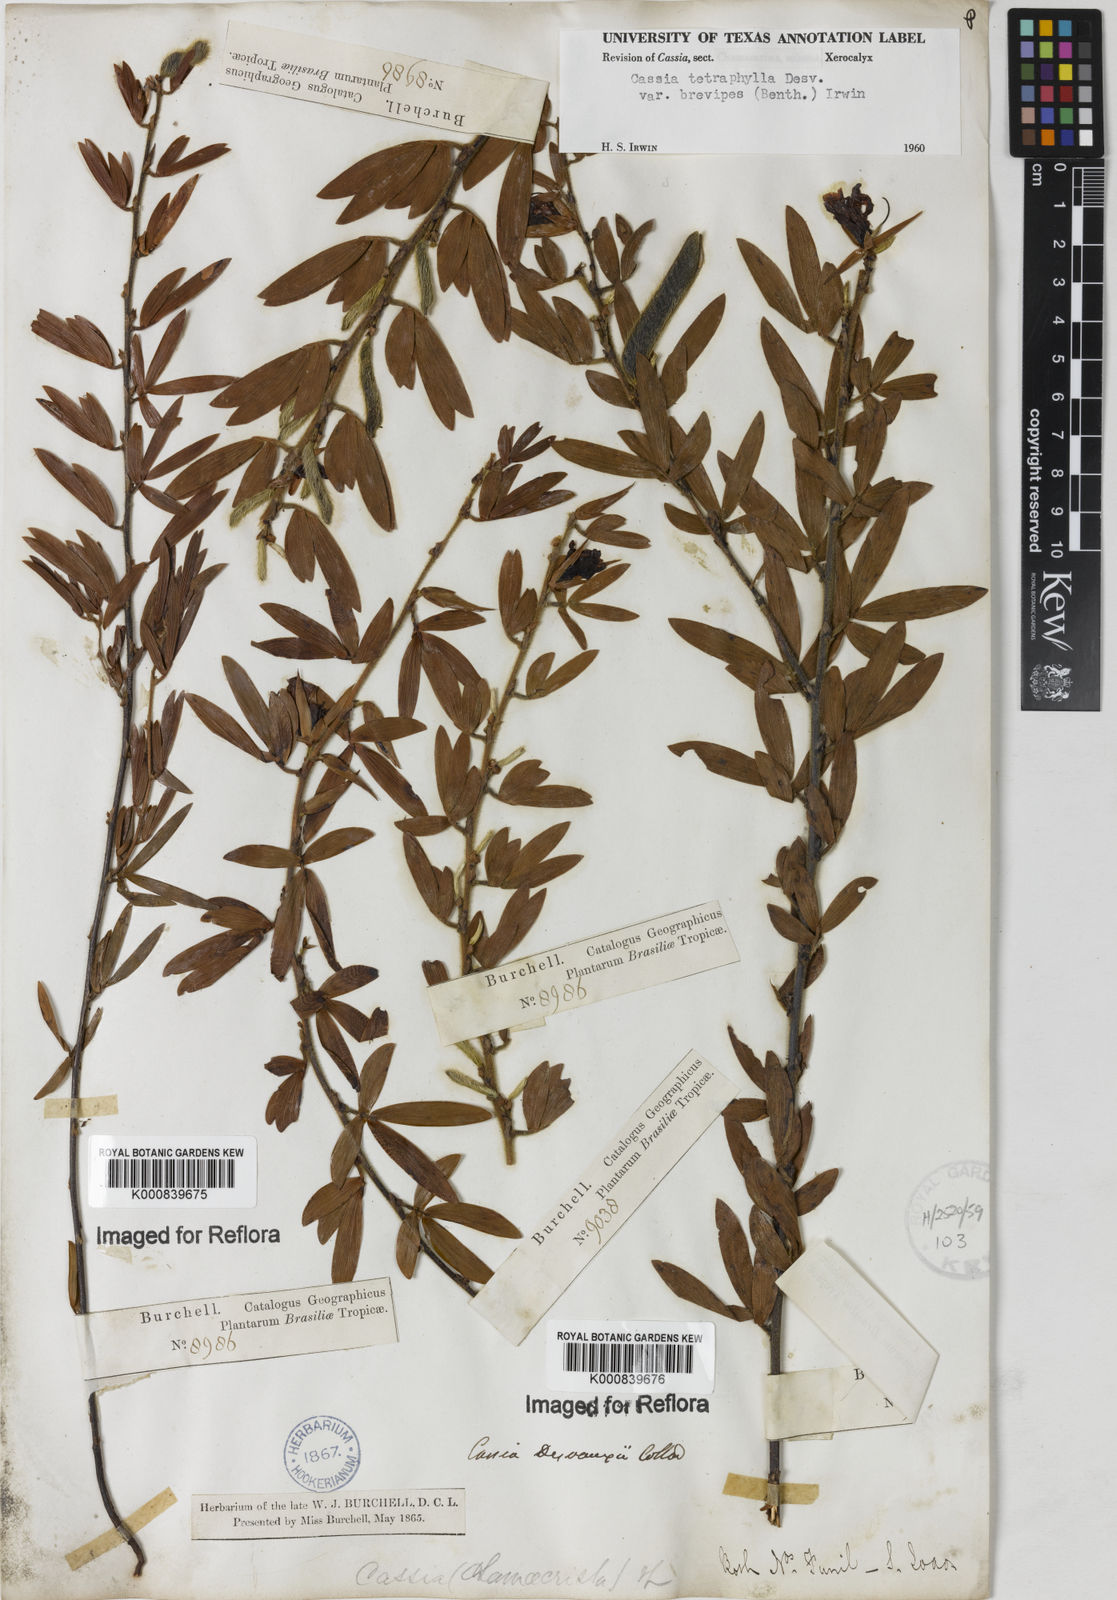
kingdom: Plantae
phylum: Tracheophyta
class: Magnoliopsida
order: Fabales
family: Fabaceae
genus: Chamaecrista
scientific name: Chamaecrista desvauxii
